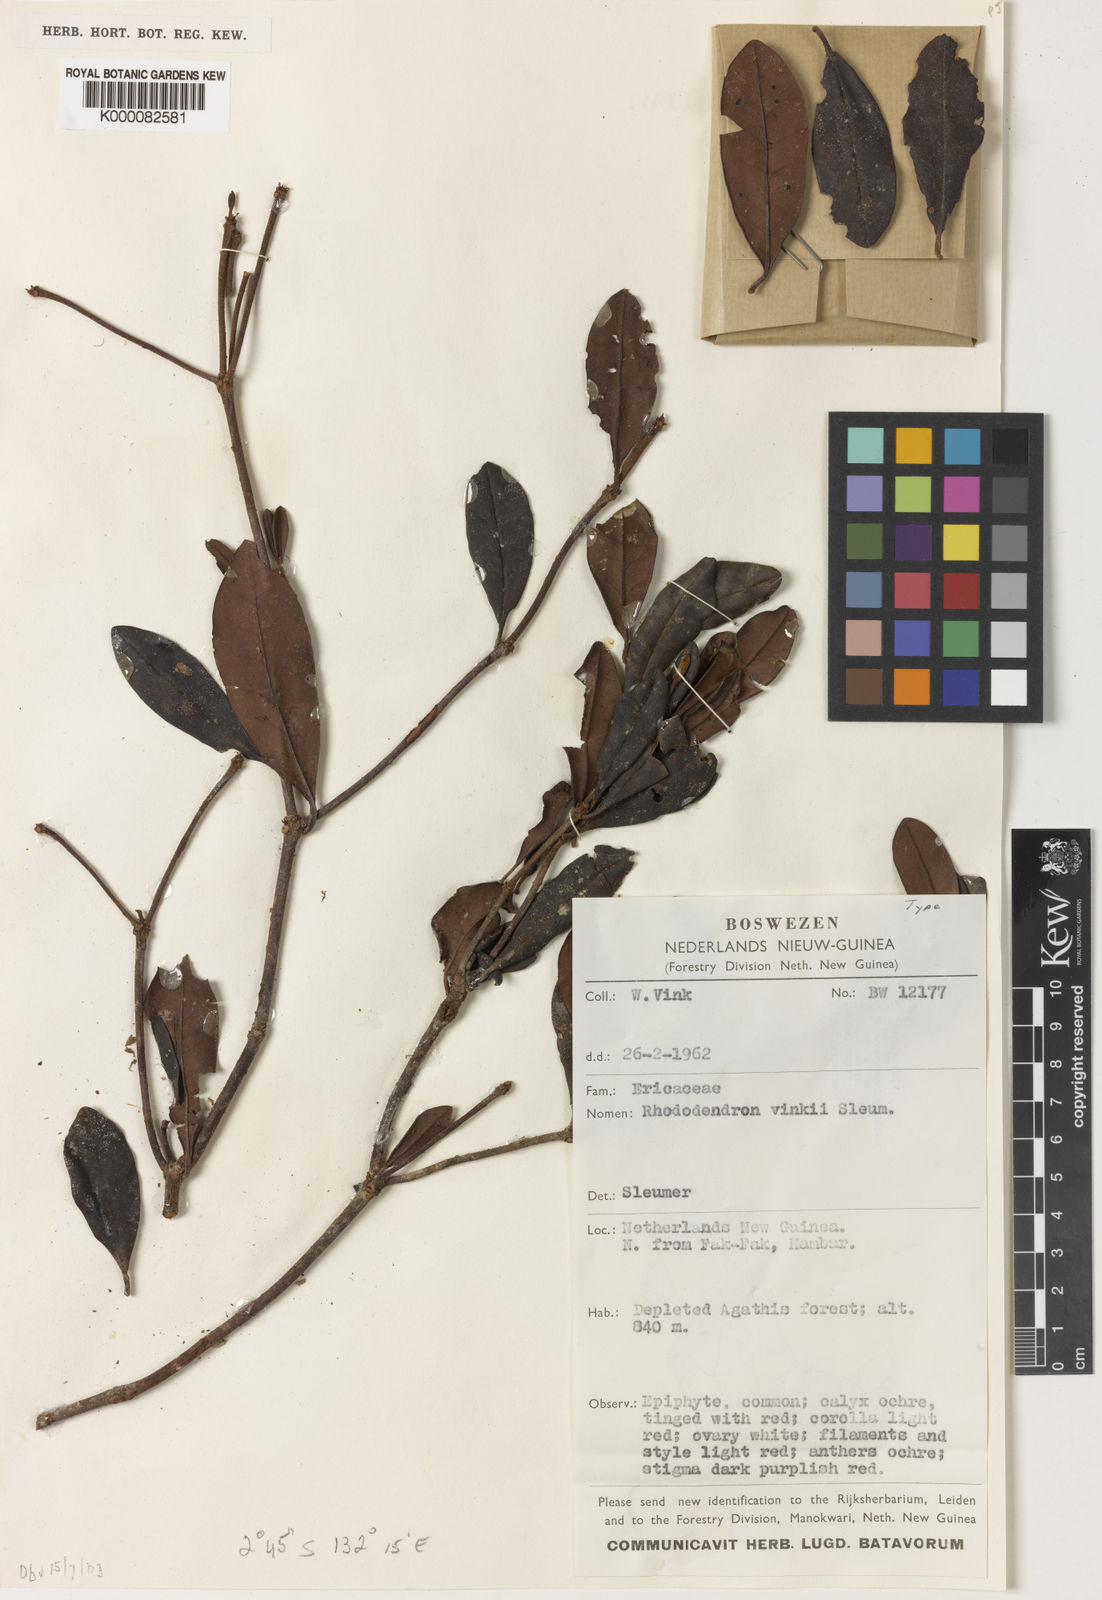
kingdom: Plantae
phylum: Tracheophyta
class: Magnoliopsida
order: Ericales
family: Ericaceae
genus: Rhododendron
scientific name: Rhododendron vinkii
